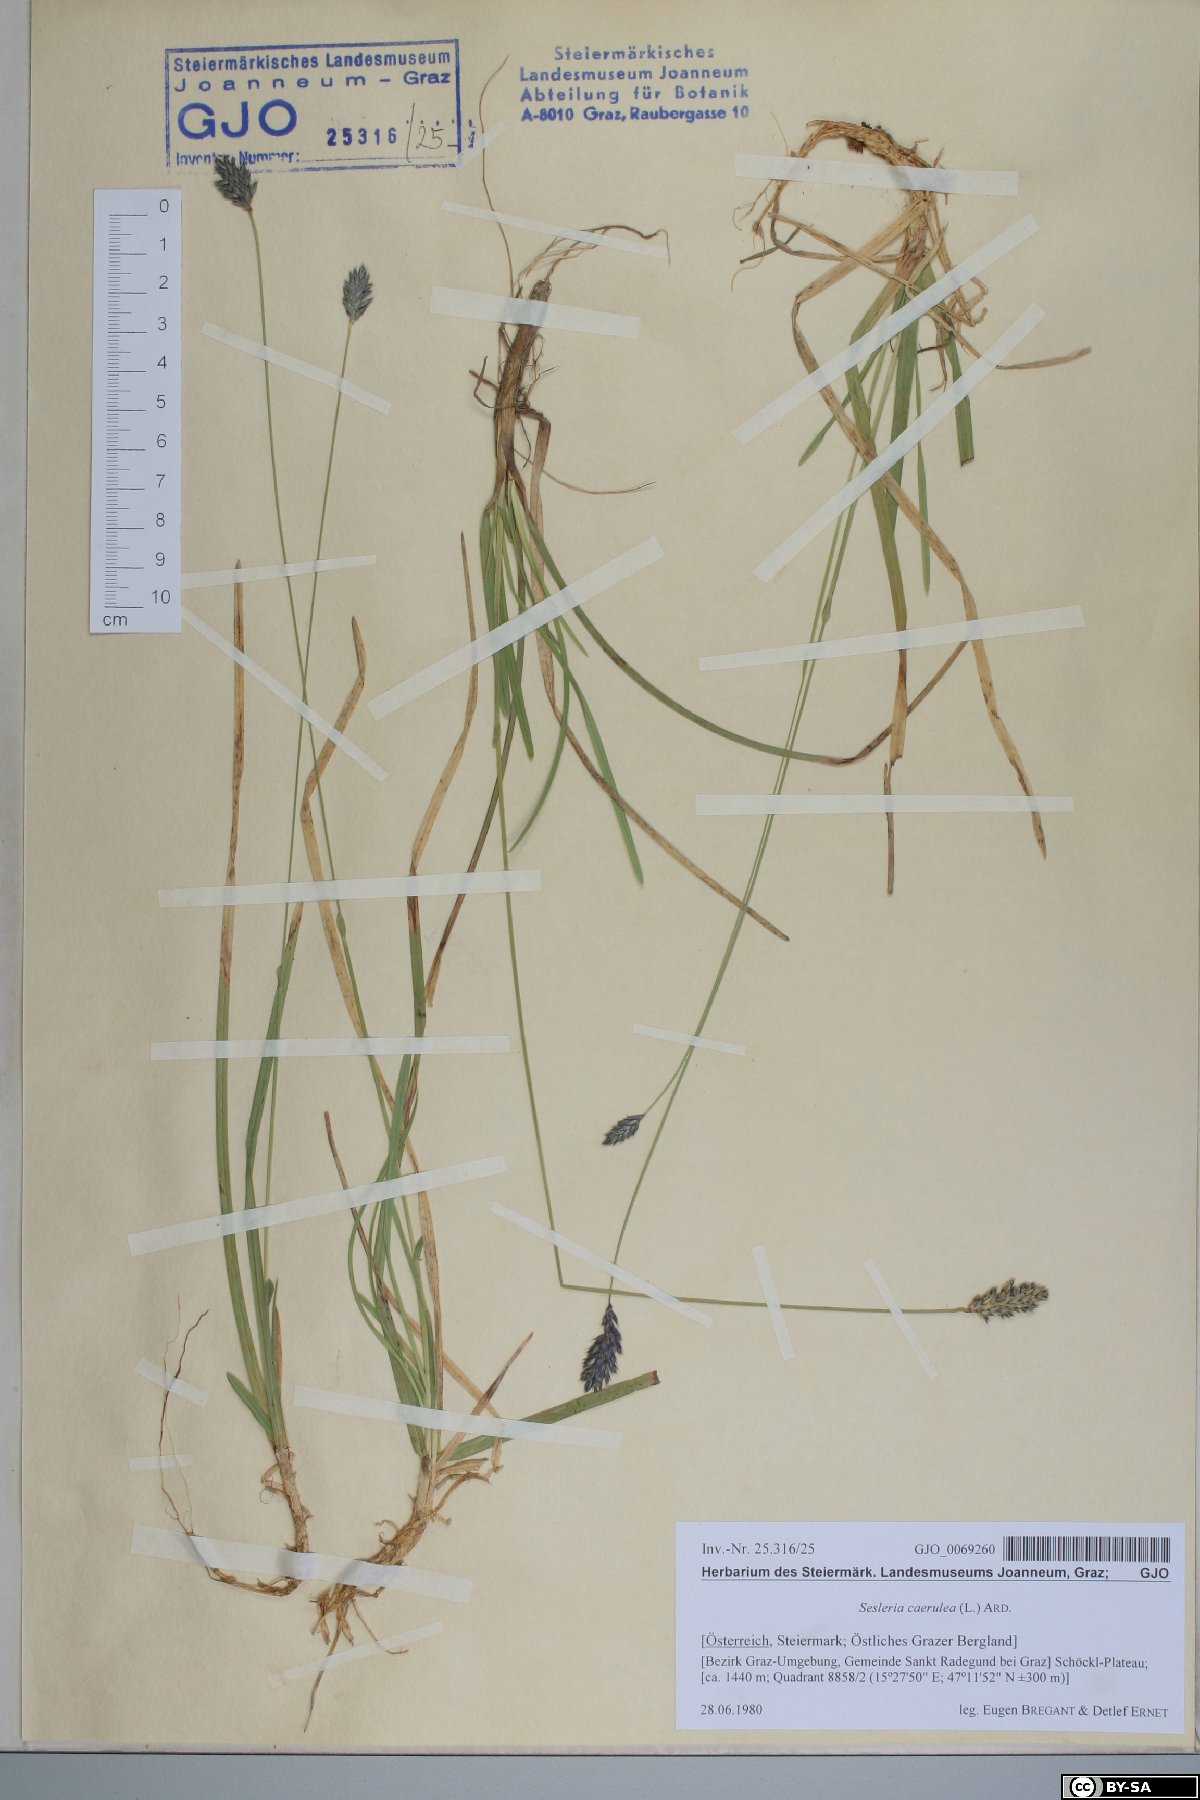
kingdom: Plantae
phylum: Tracheophyta
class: Liliopsida
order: Poales
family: Poaceae
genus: Sesleria
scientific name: Sesleria caerulea
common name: Blue moor-grass
